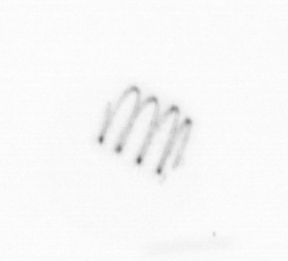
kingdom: Chromista
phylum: Ochrophyta
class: Bacillariophyceae
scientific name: Bacillariophyceae
